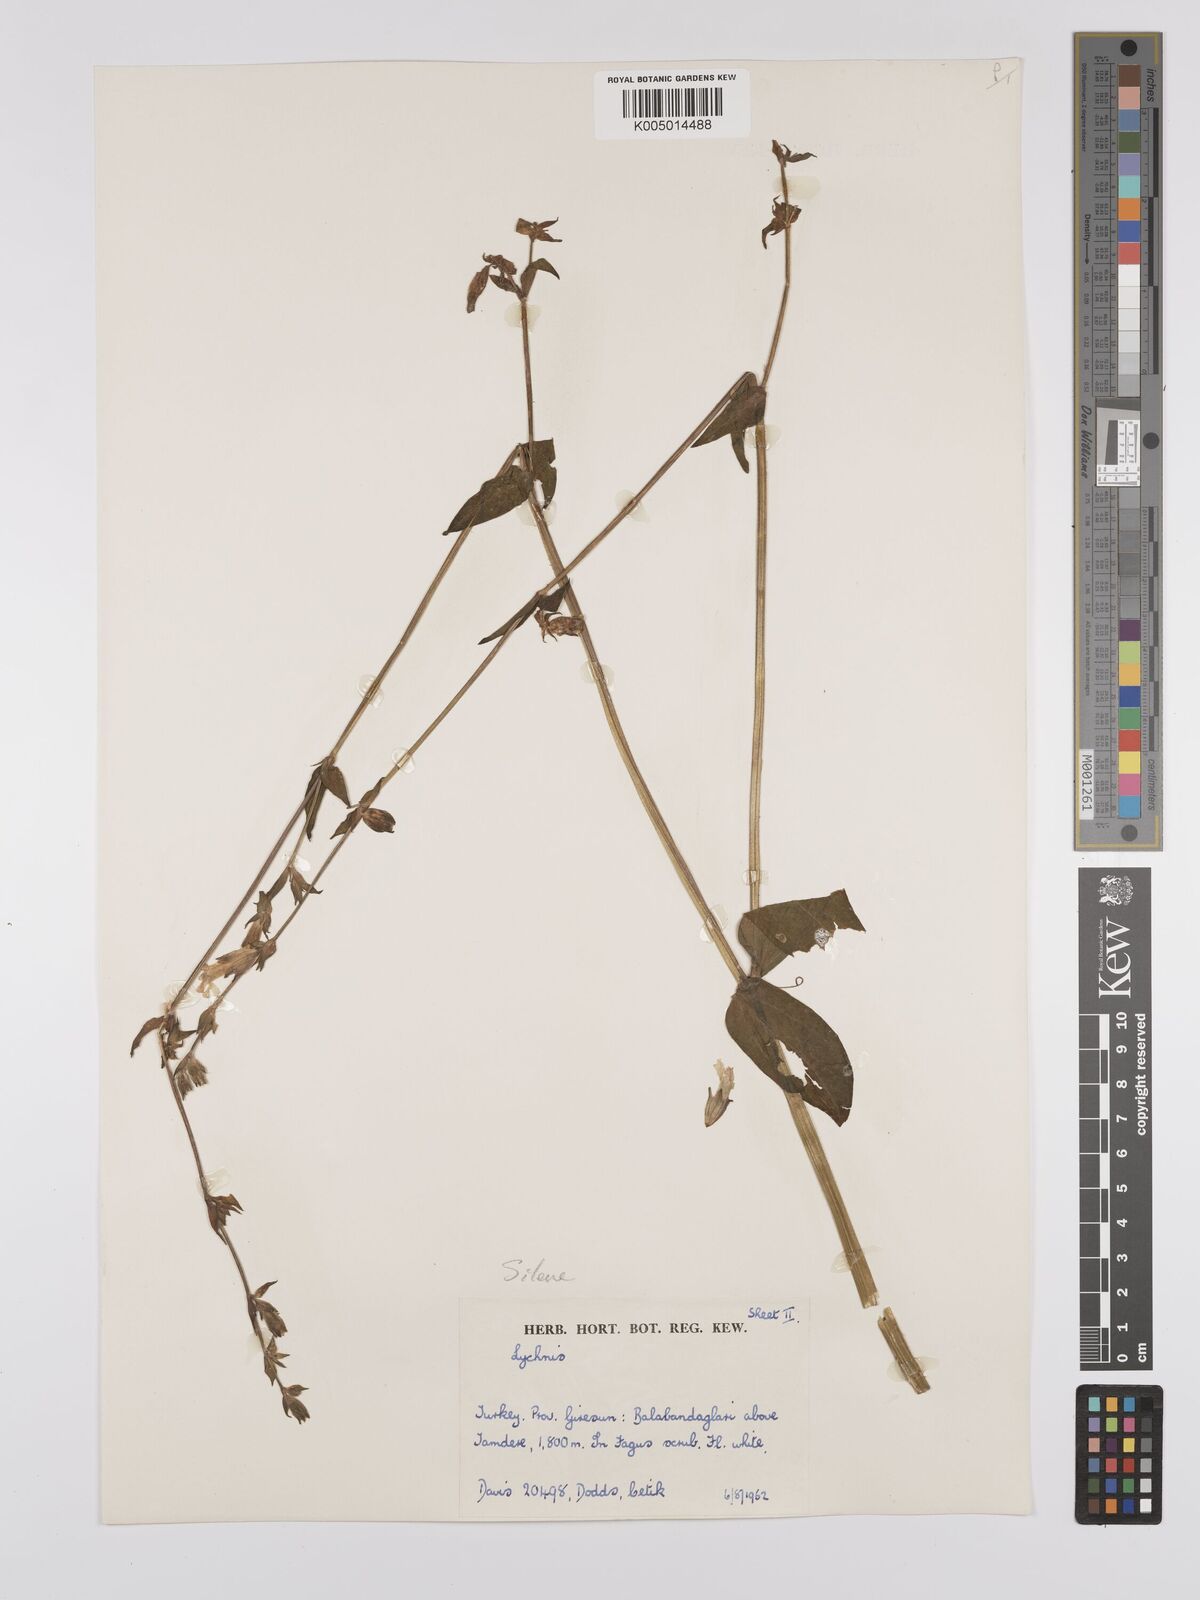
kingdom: Plantae
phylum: Tracheophyta
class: Magnoliopsida
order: Caryophyllales
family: Caryophyllaceae
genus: Silene
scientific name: Silene
